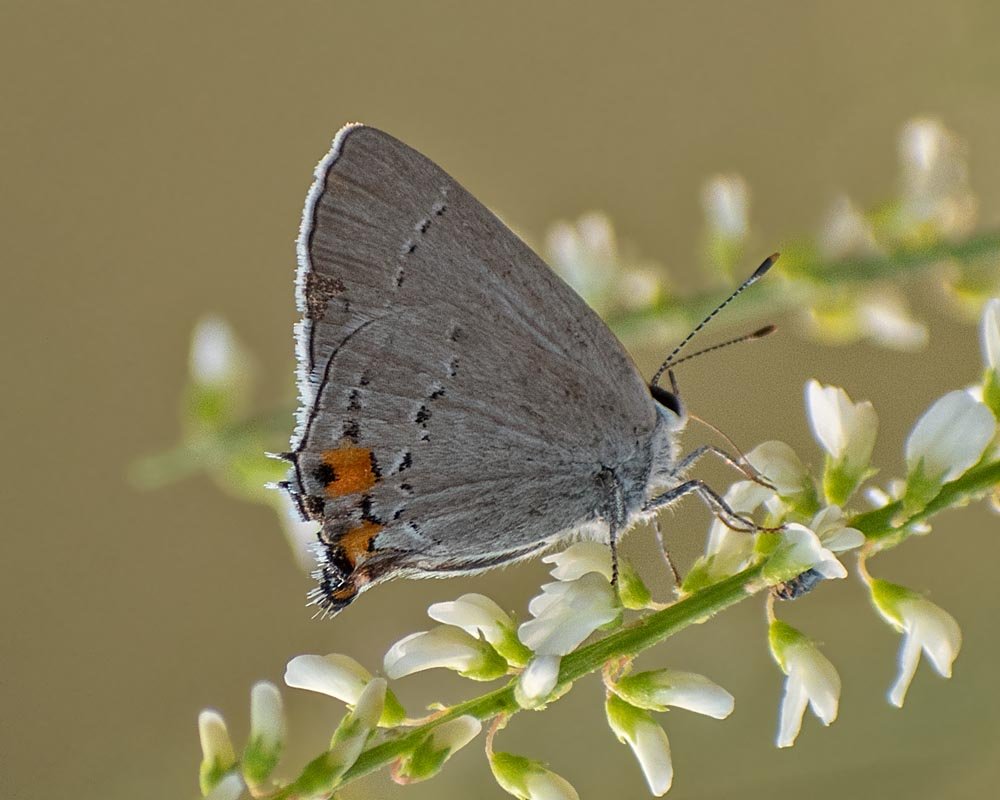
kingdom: Animalia
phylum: Arthropoda
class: Insecta
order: Lepidoptera
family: Lycaenidae
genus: Strymon
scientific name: Strymon melinus
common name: Gray Hairstreak
